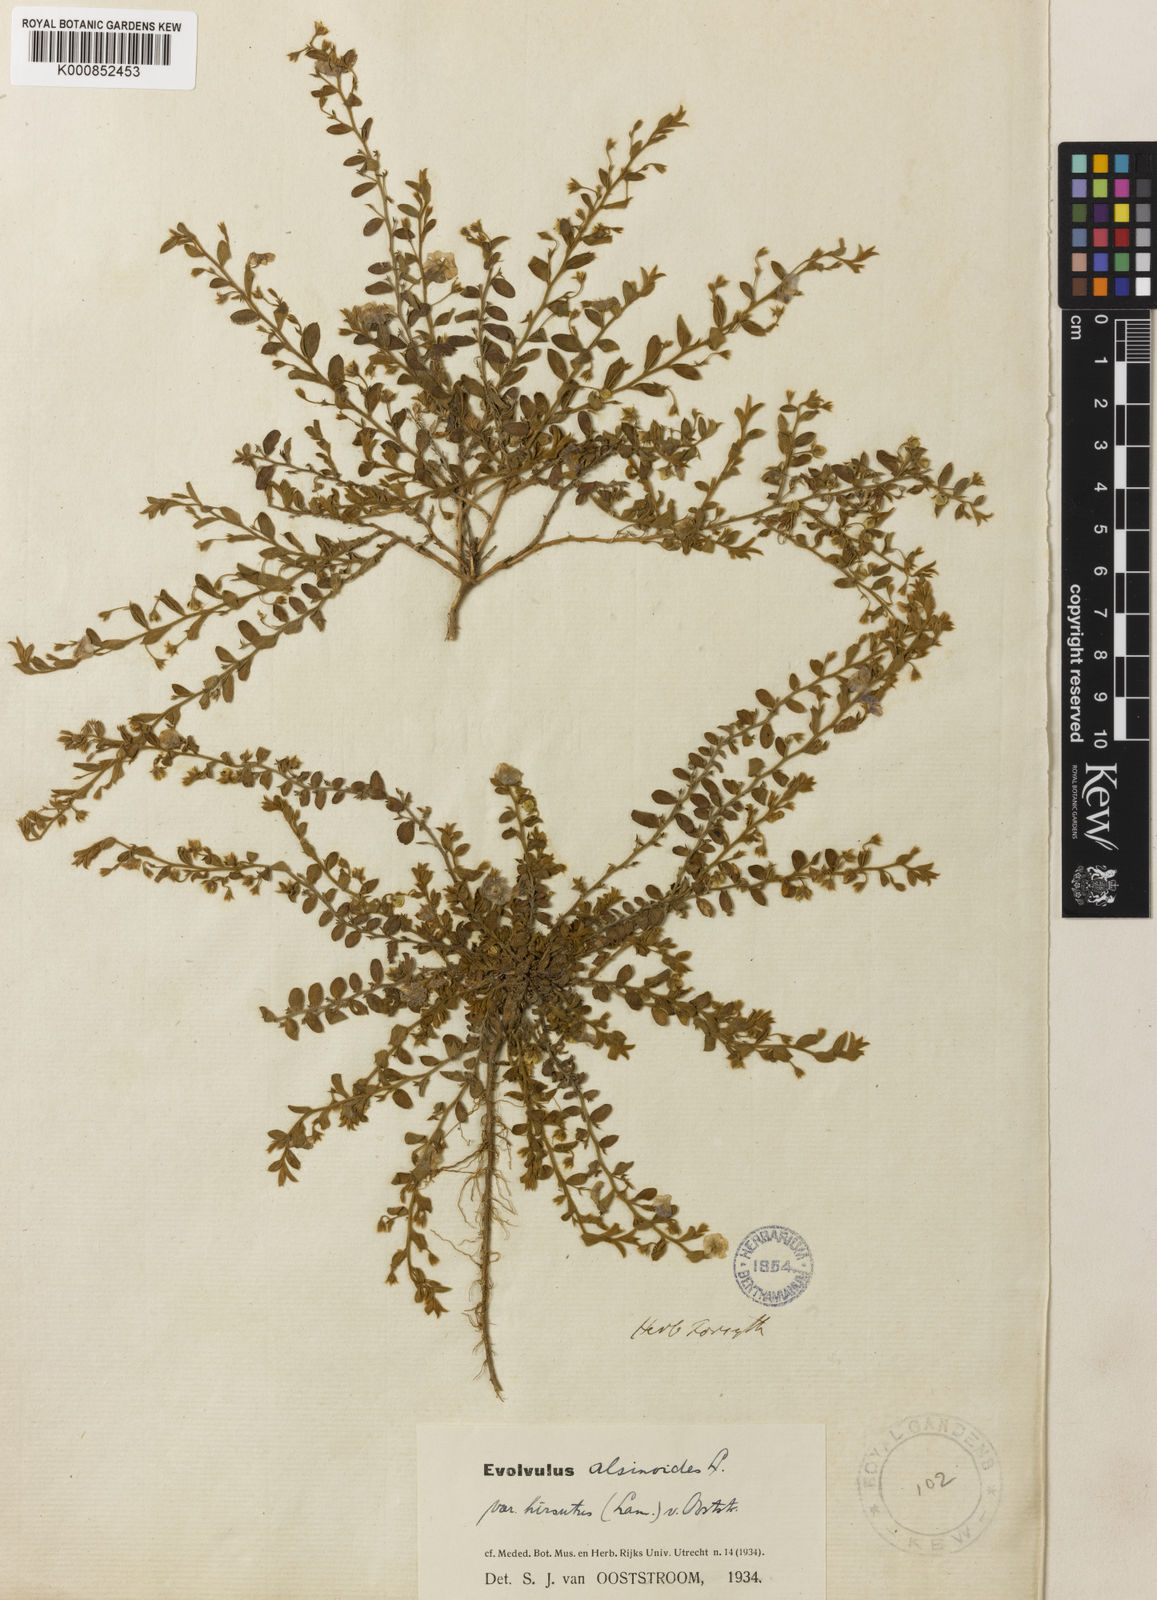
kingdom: Plantae
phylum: Tracheophyta
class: Magnoliopsida
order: Solanales
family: Convolvulaceae
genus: Evolvulus
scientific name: Evolvulus alsinoides
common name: Slender dwarf morning-glory
